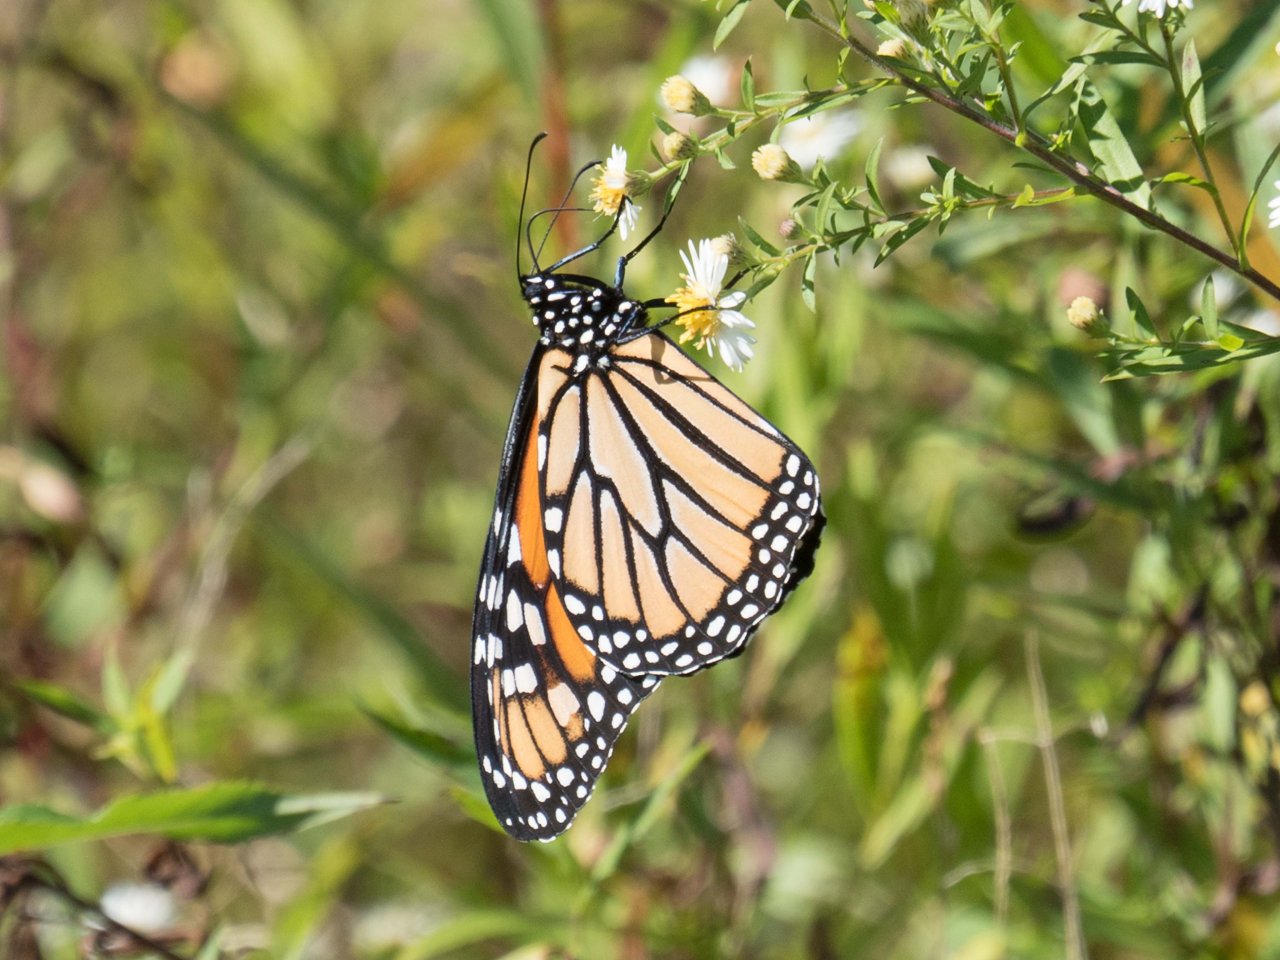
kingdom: Animalia
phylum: Arthropoda
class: Insecta
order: Lepidoptera
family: Nymphalidae
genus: Danaus
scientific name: Danaus plexippus
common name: Monarch
